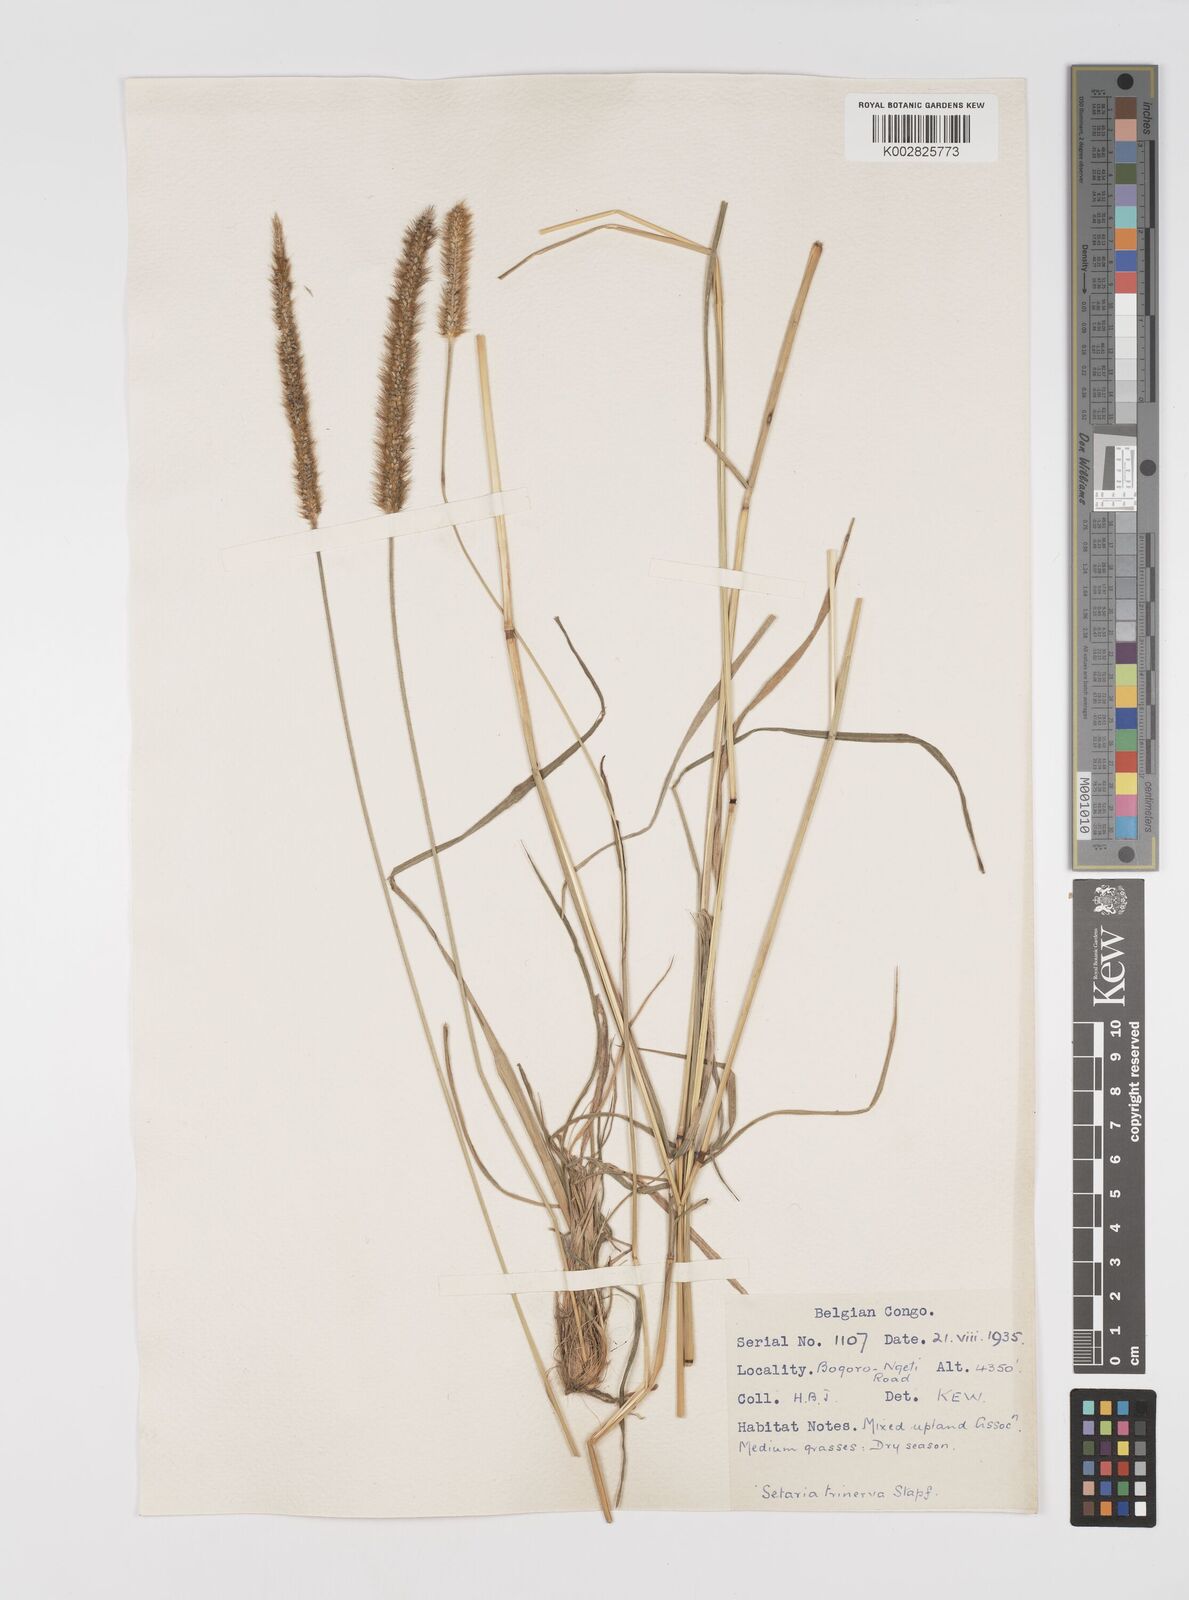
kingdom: Plantae
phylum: Tracheophyta
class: Liliopsida
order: Poales
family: Poaceae
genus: Setaria
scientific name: Setaria sphacelata
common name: African bristlegrass
